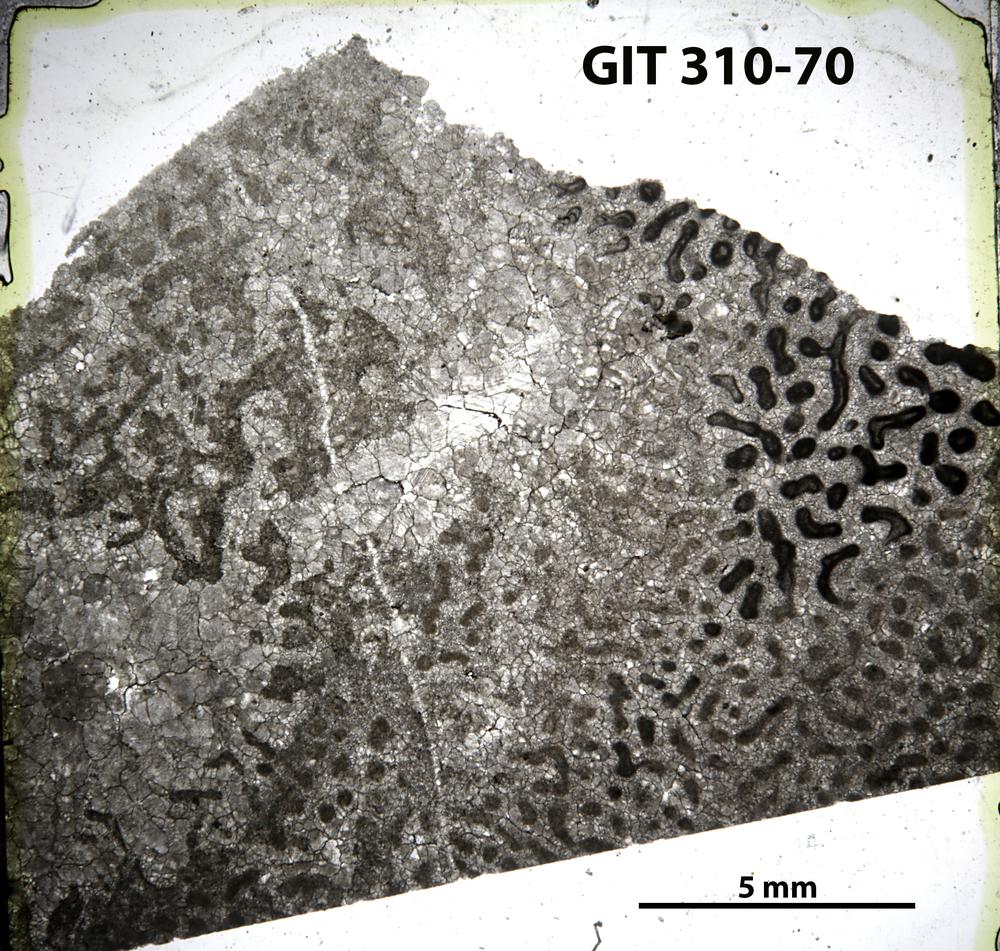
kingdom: Animalia
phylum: Porifera
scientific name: Porifera
